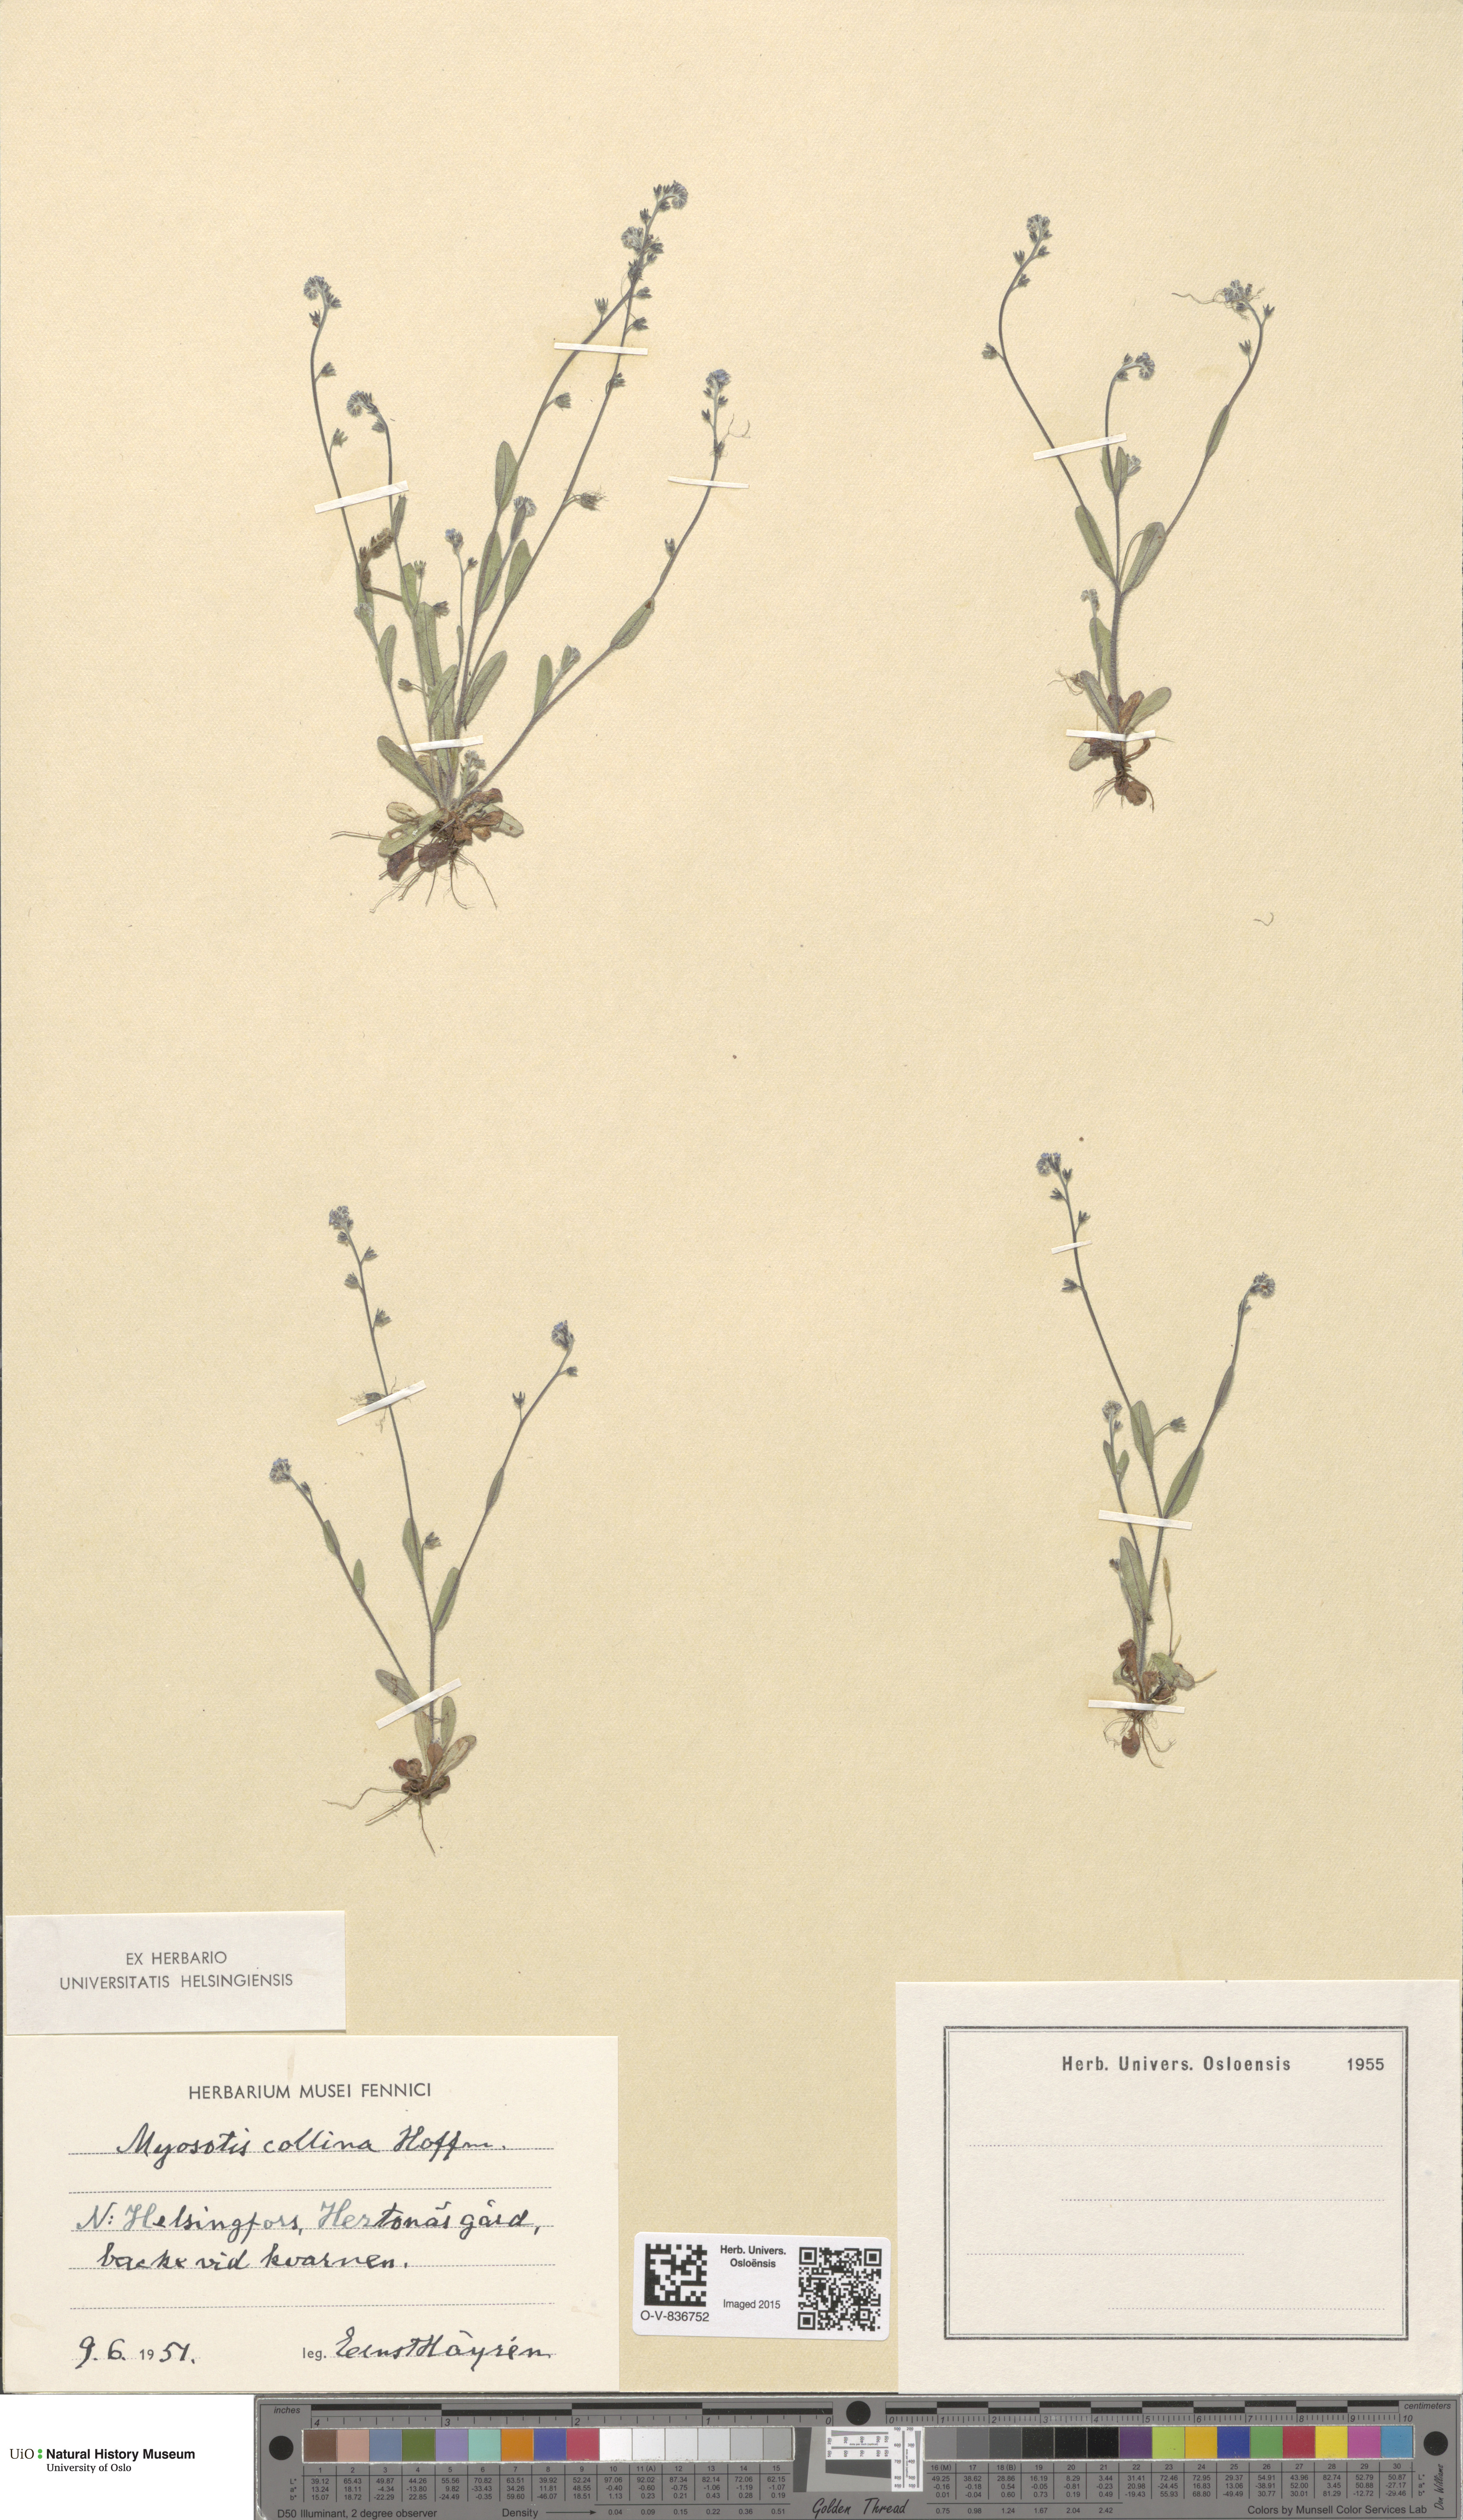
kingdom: Plantae
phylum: Tracheophyta
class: Magnoliopsida
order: Boraginales
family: Boraginaceae
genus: Myosotis
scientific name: Myosotis ramosissima
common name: Early forget-me-not
